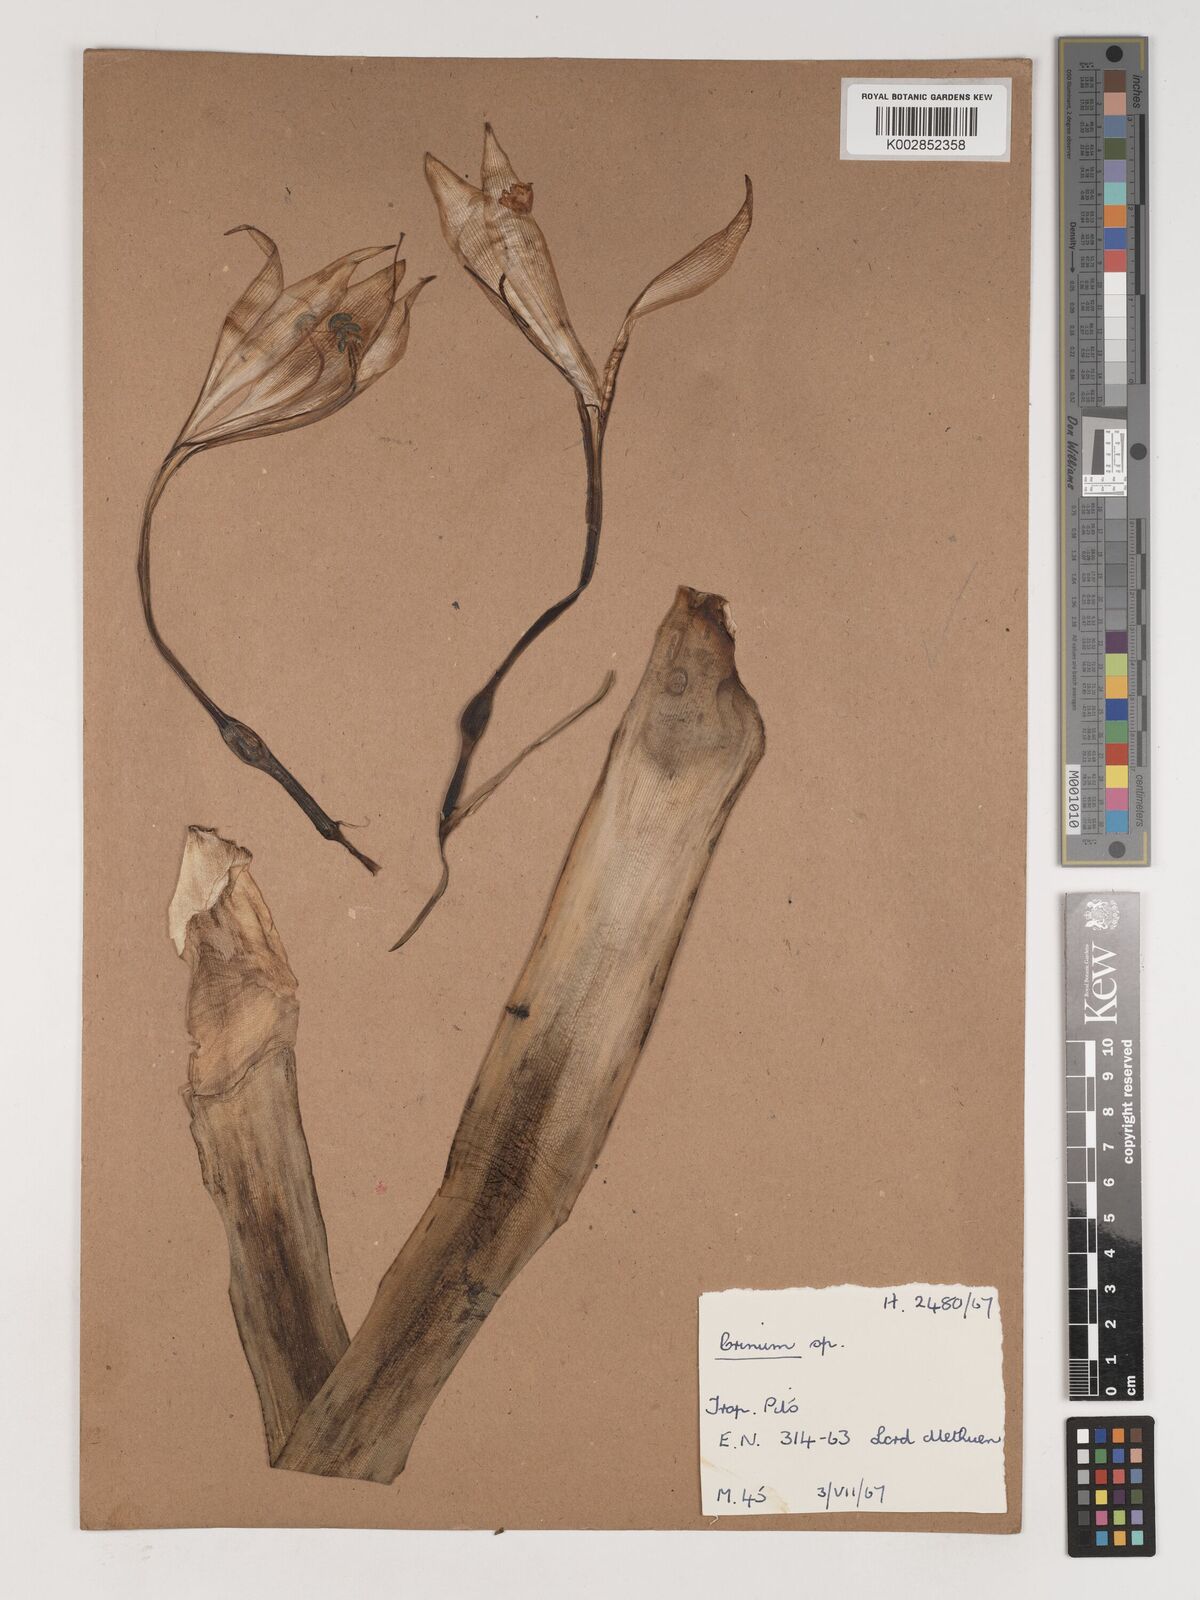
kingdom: Plantae
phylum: Tracheophyta
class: Liliopsida
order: Asparagales
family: Amaryllidaceae
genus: Crinum
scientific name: Crinum
